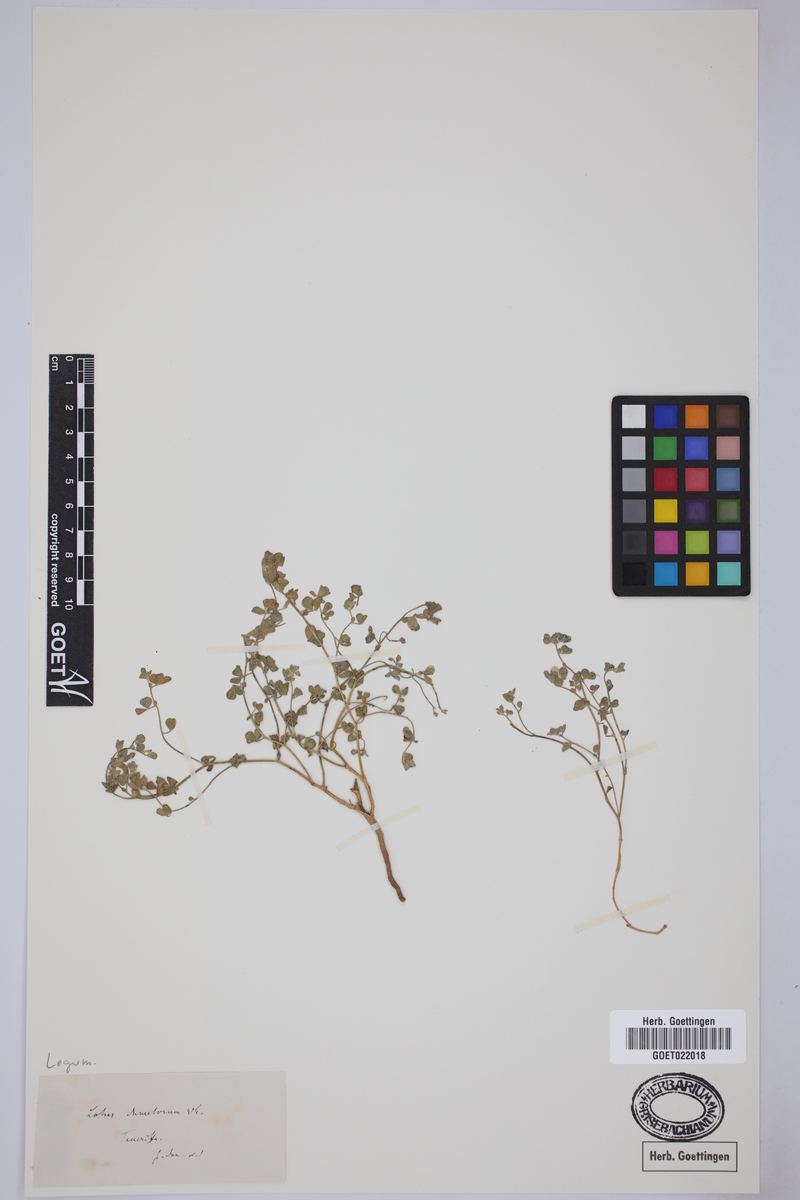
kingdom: Plantae
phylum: Tracheophyta
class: Magnoliopsida
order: Fabales
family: Fabaceae
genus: Lotus
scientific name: Lotus dumetorum
